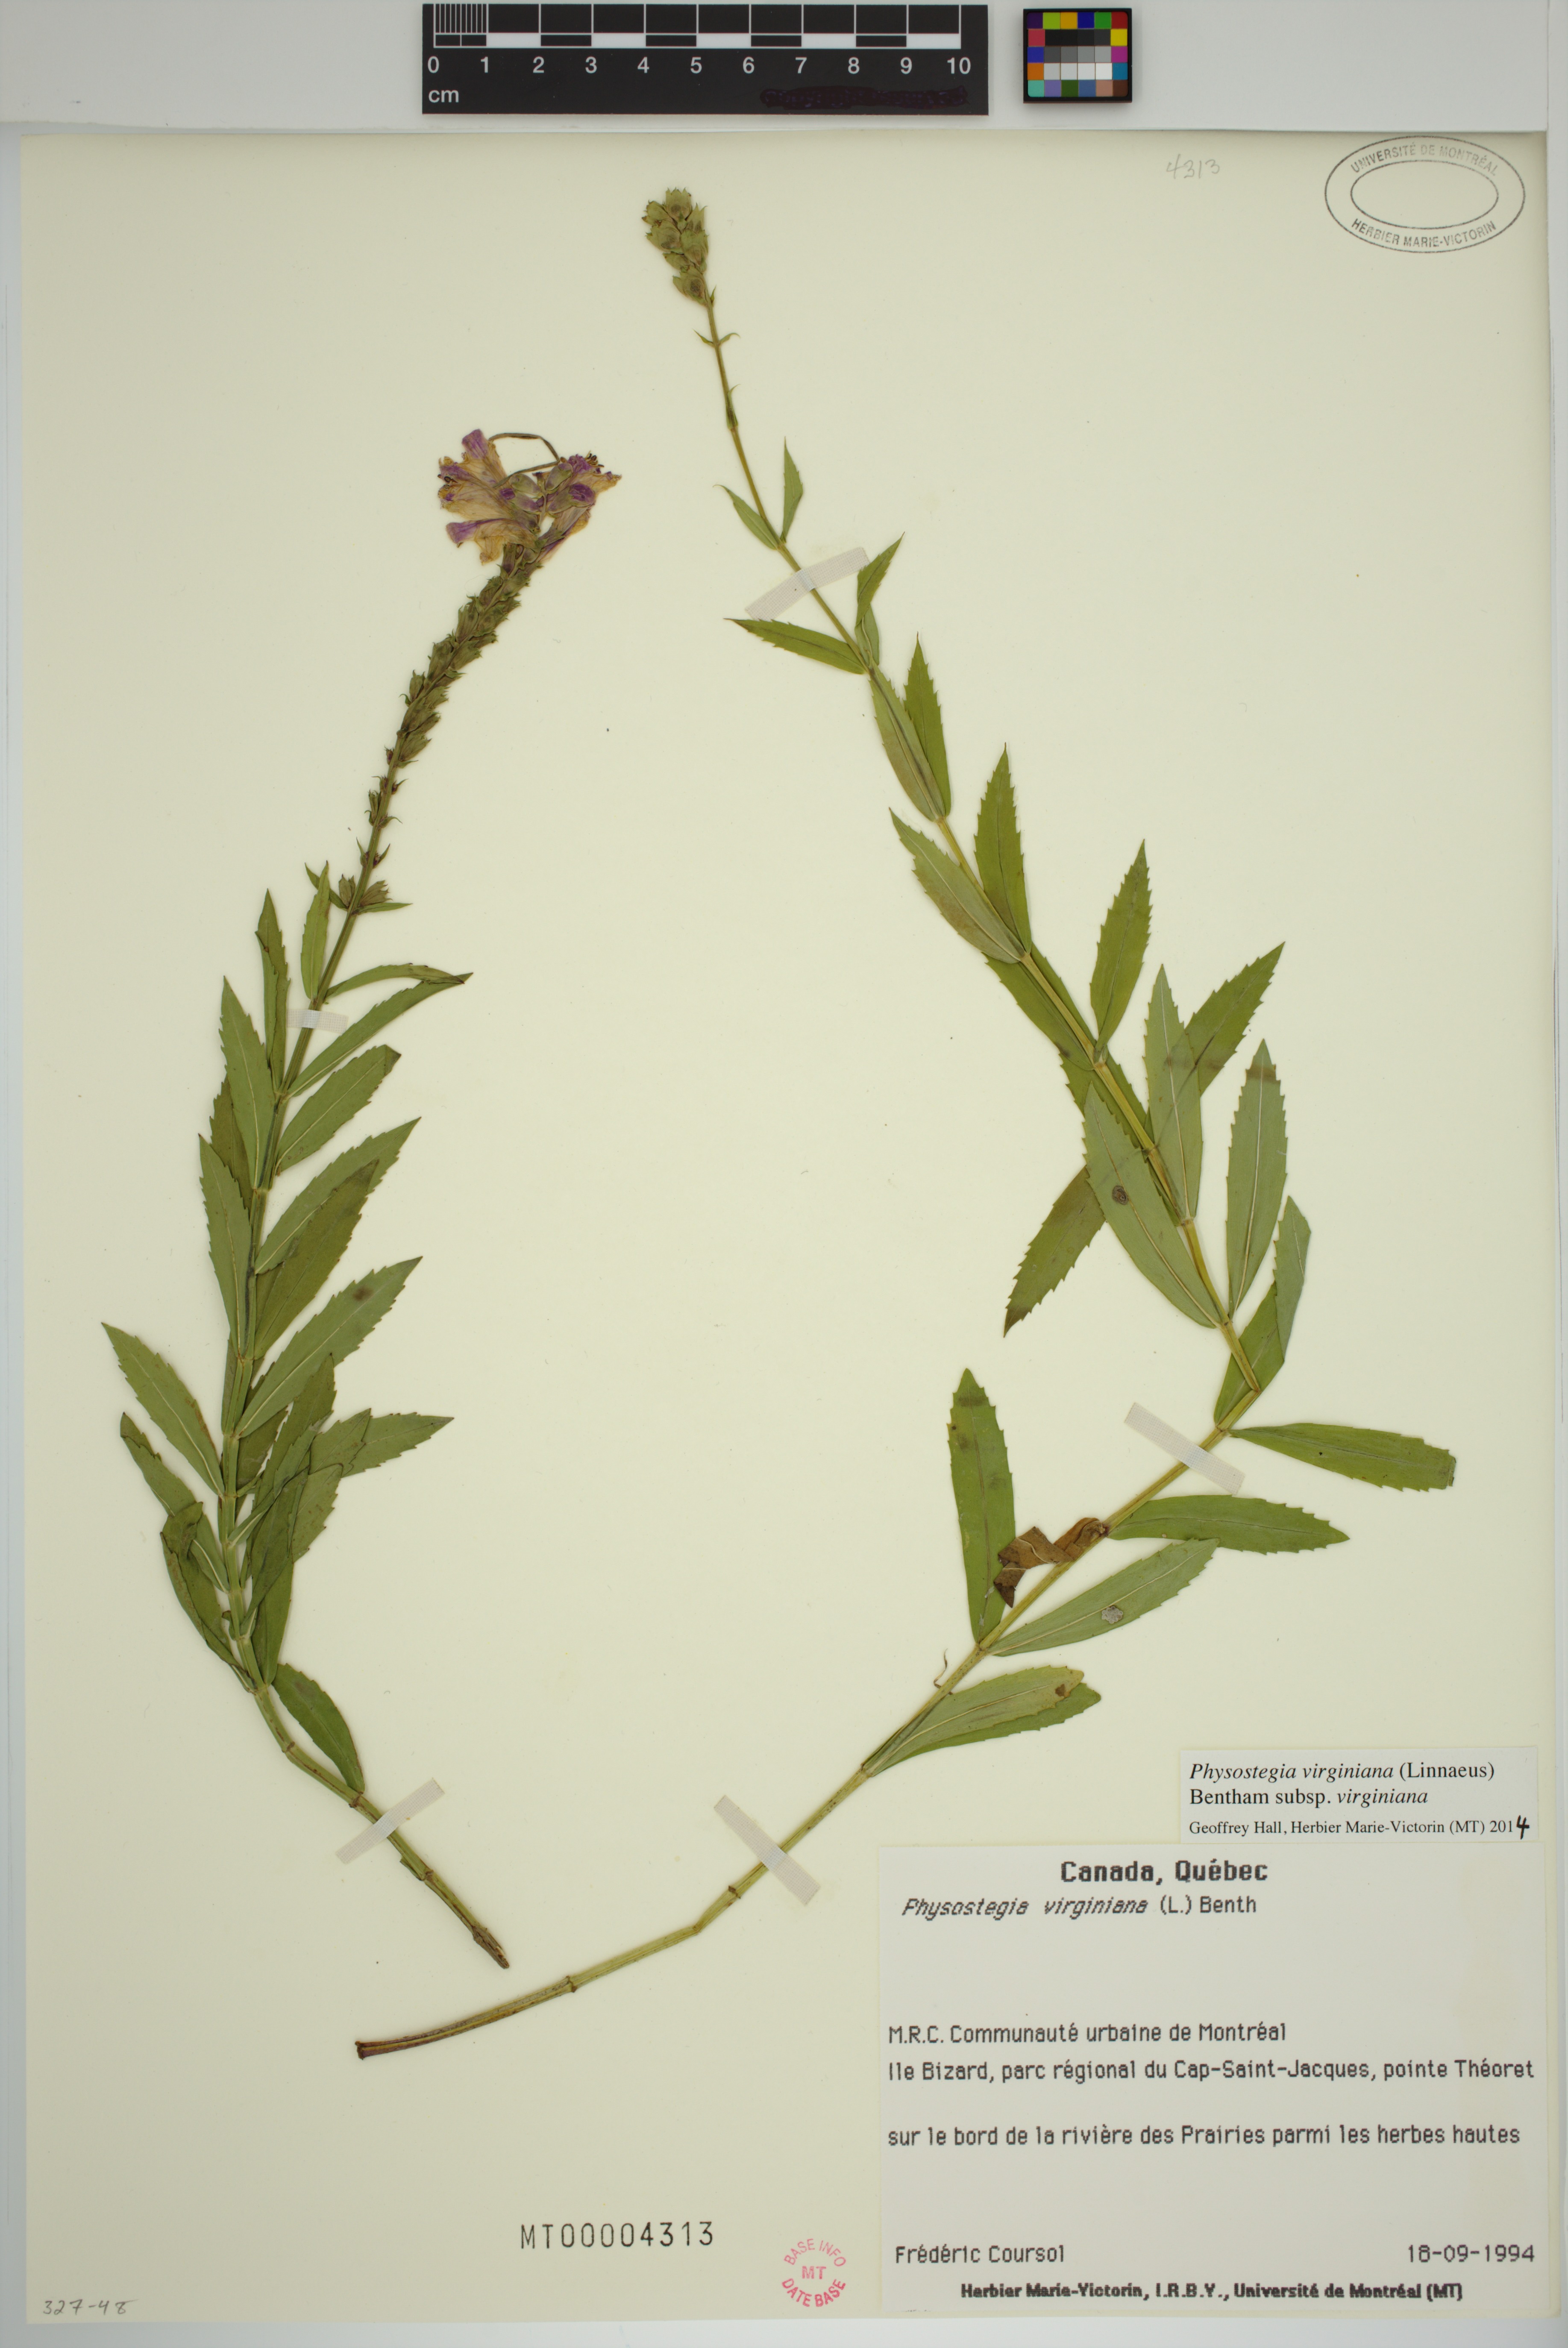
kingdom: Plantae
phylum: Tracheophyta
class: Magnoliopsida
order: Lamiales
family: Lamiaceae
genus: Physostegia
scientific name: Physostegia virginiana
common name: Obedient-plant
